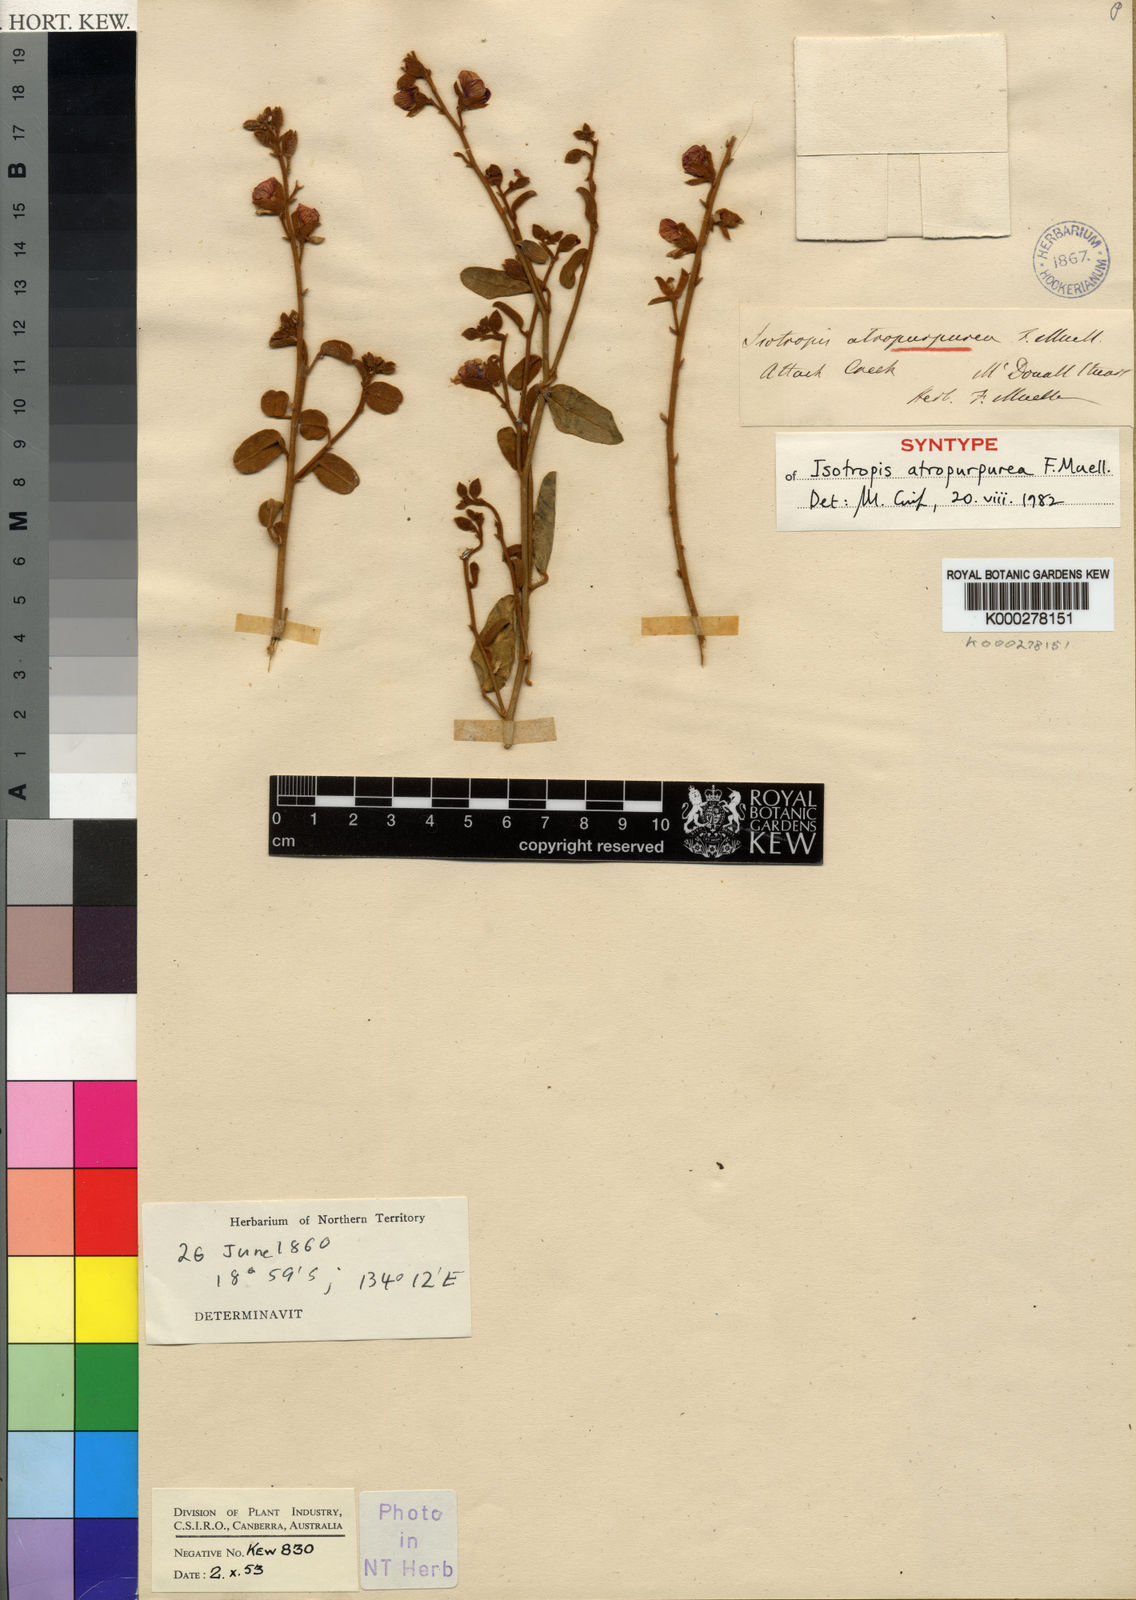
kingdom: Plantae
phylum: Tracheophyta
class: Magnoliopsida
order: Fabales
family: Fabaceae
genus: Isotropis
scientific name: Isotropis atropurpurea
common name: Poison-sage
